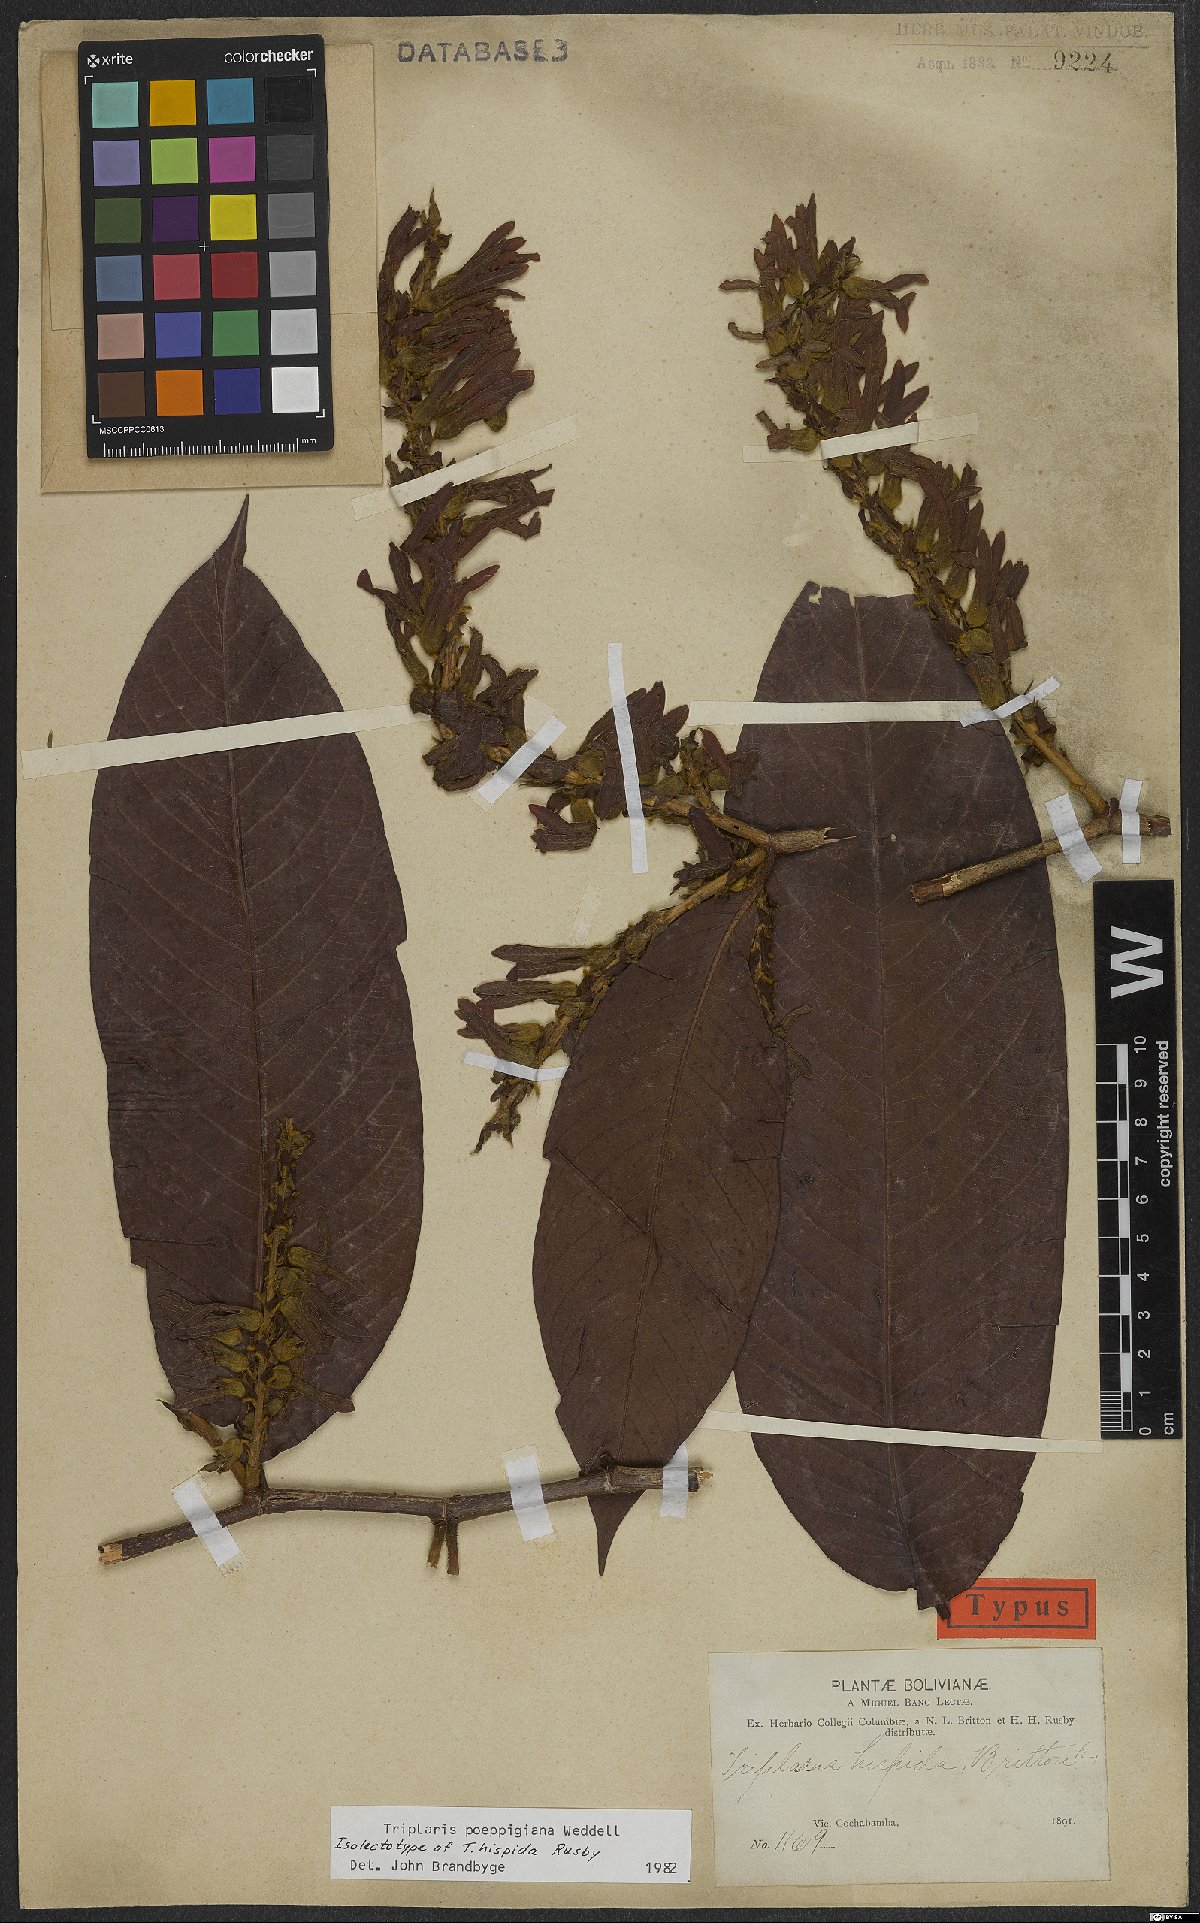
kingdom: Plantae
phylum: Tracheophyta
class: Magnoliopsida
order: Caryophyllales
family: Polygonaceae
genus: Triplaris
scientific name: Triplaris poeppigiana
